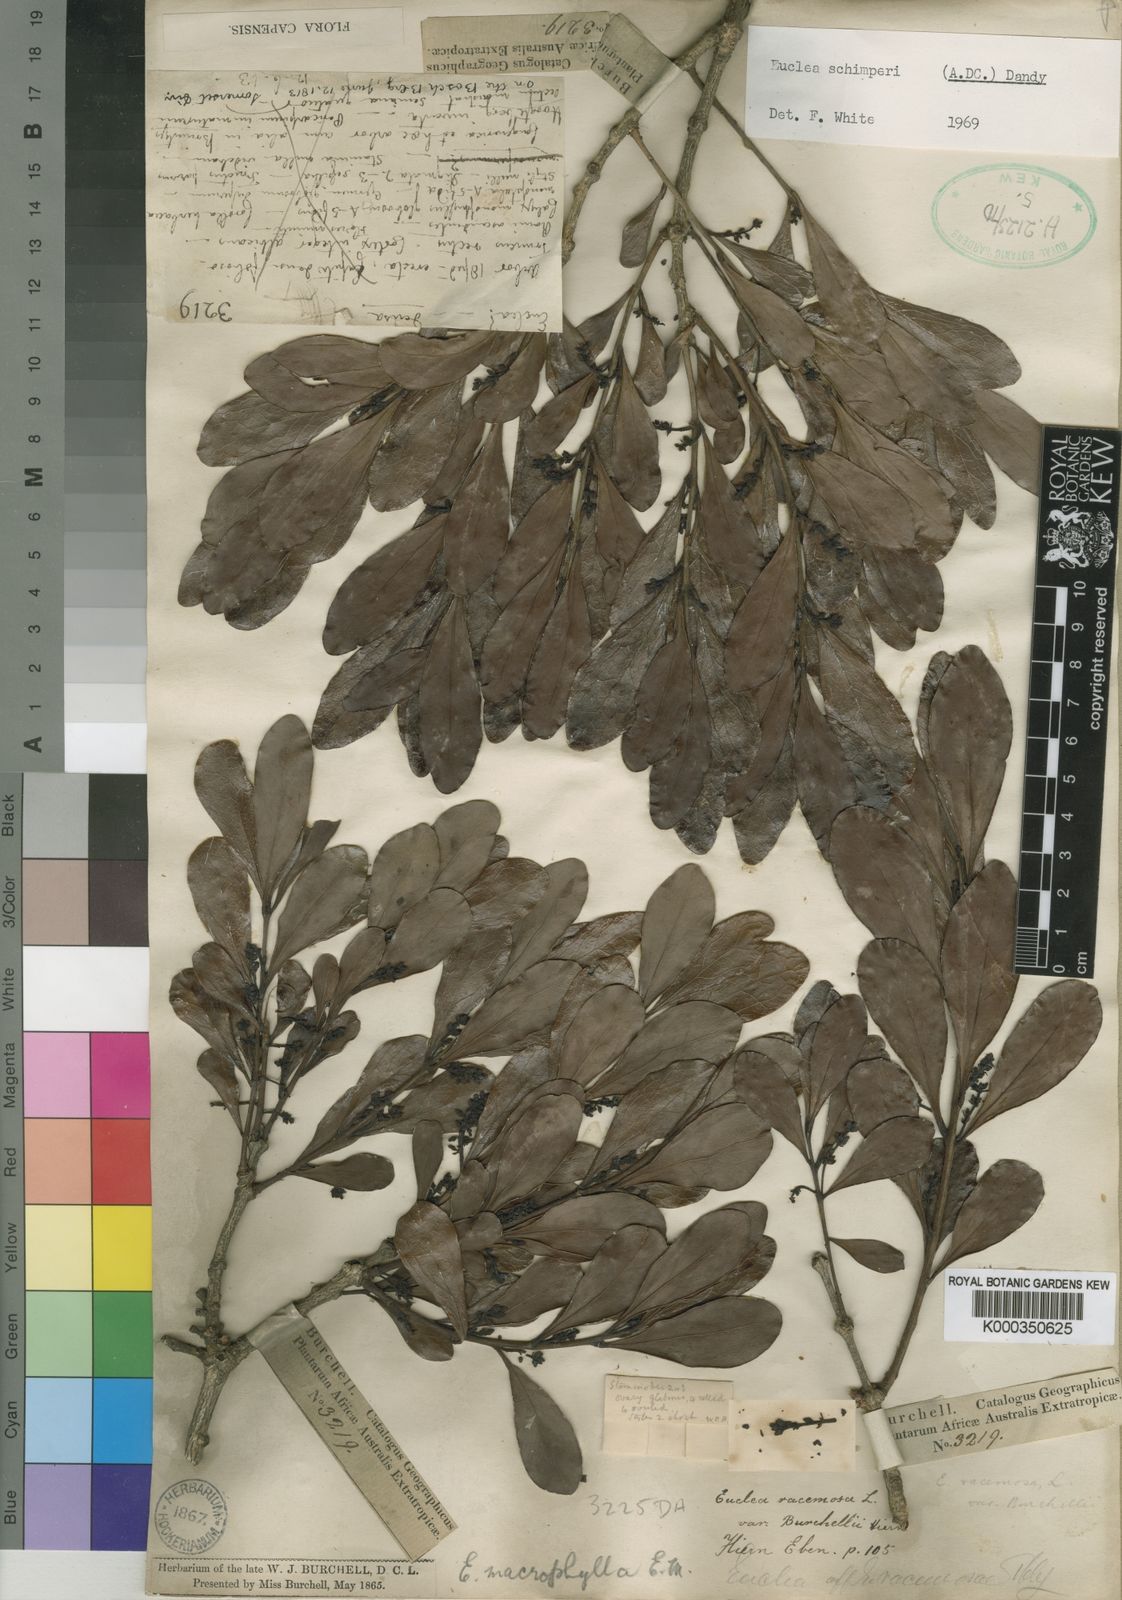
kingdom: Plantae
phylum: Tracheophyta
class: Magnoliopsida
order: Ericales
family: Ebenaceae
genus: Euclea
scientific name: Euclea racemosa
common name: Dune guarri
